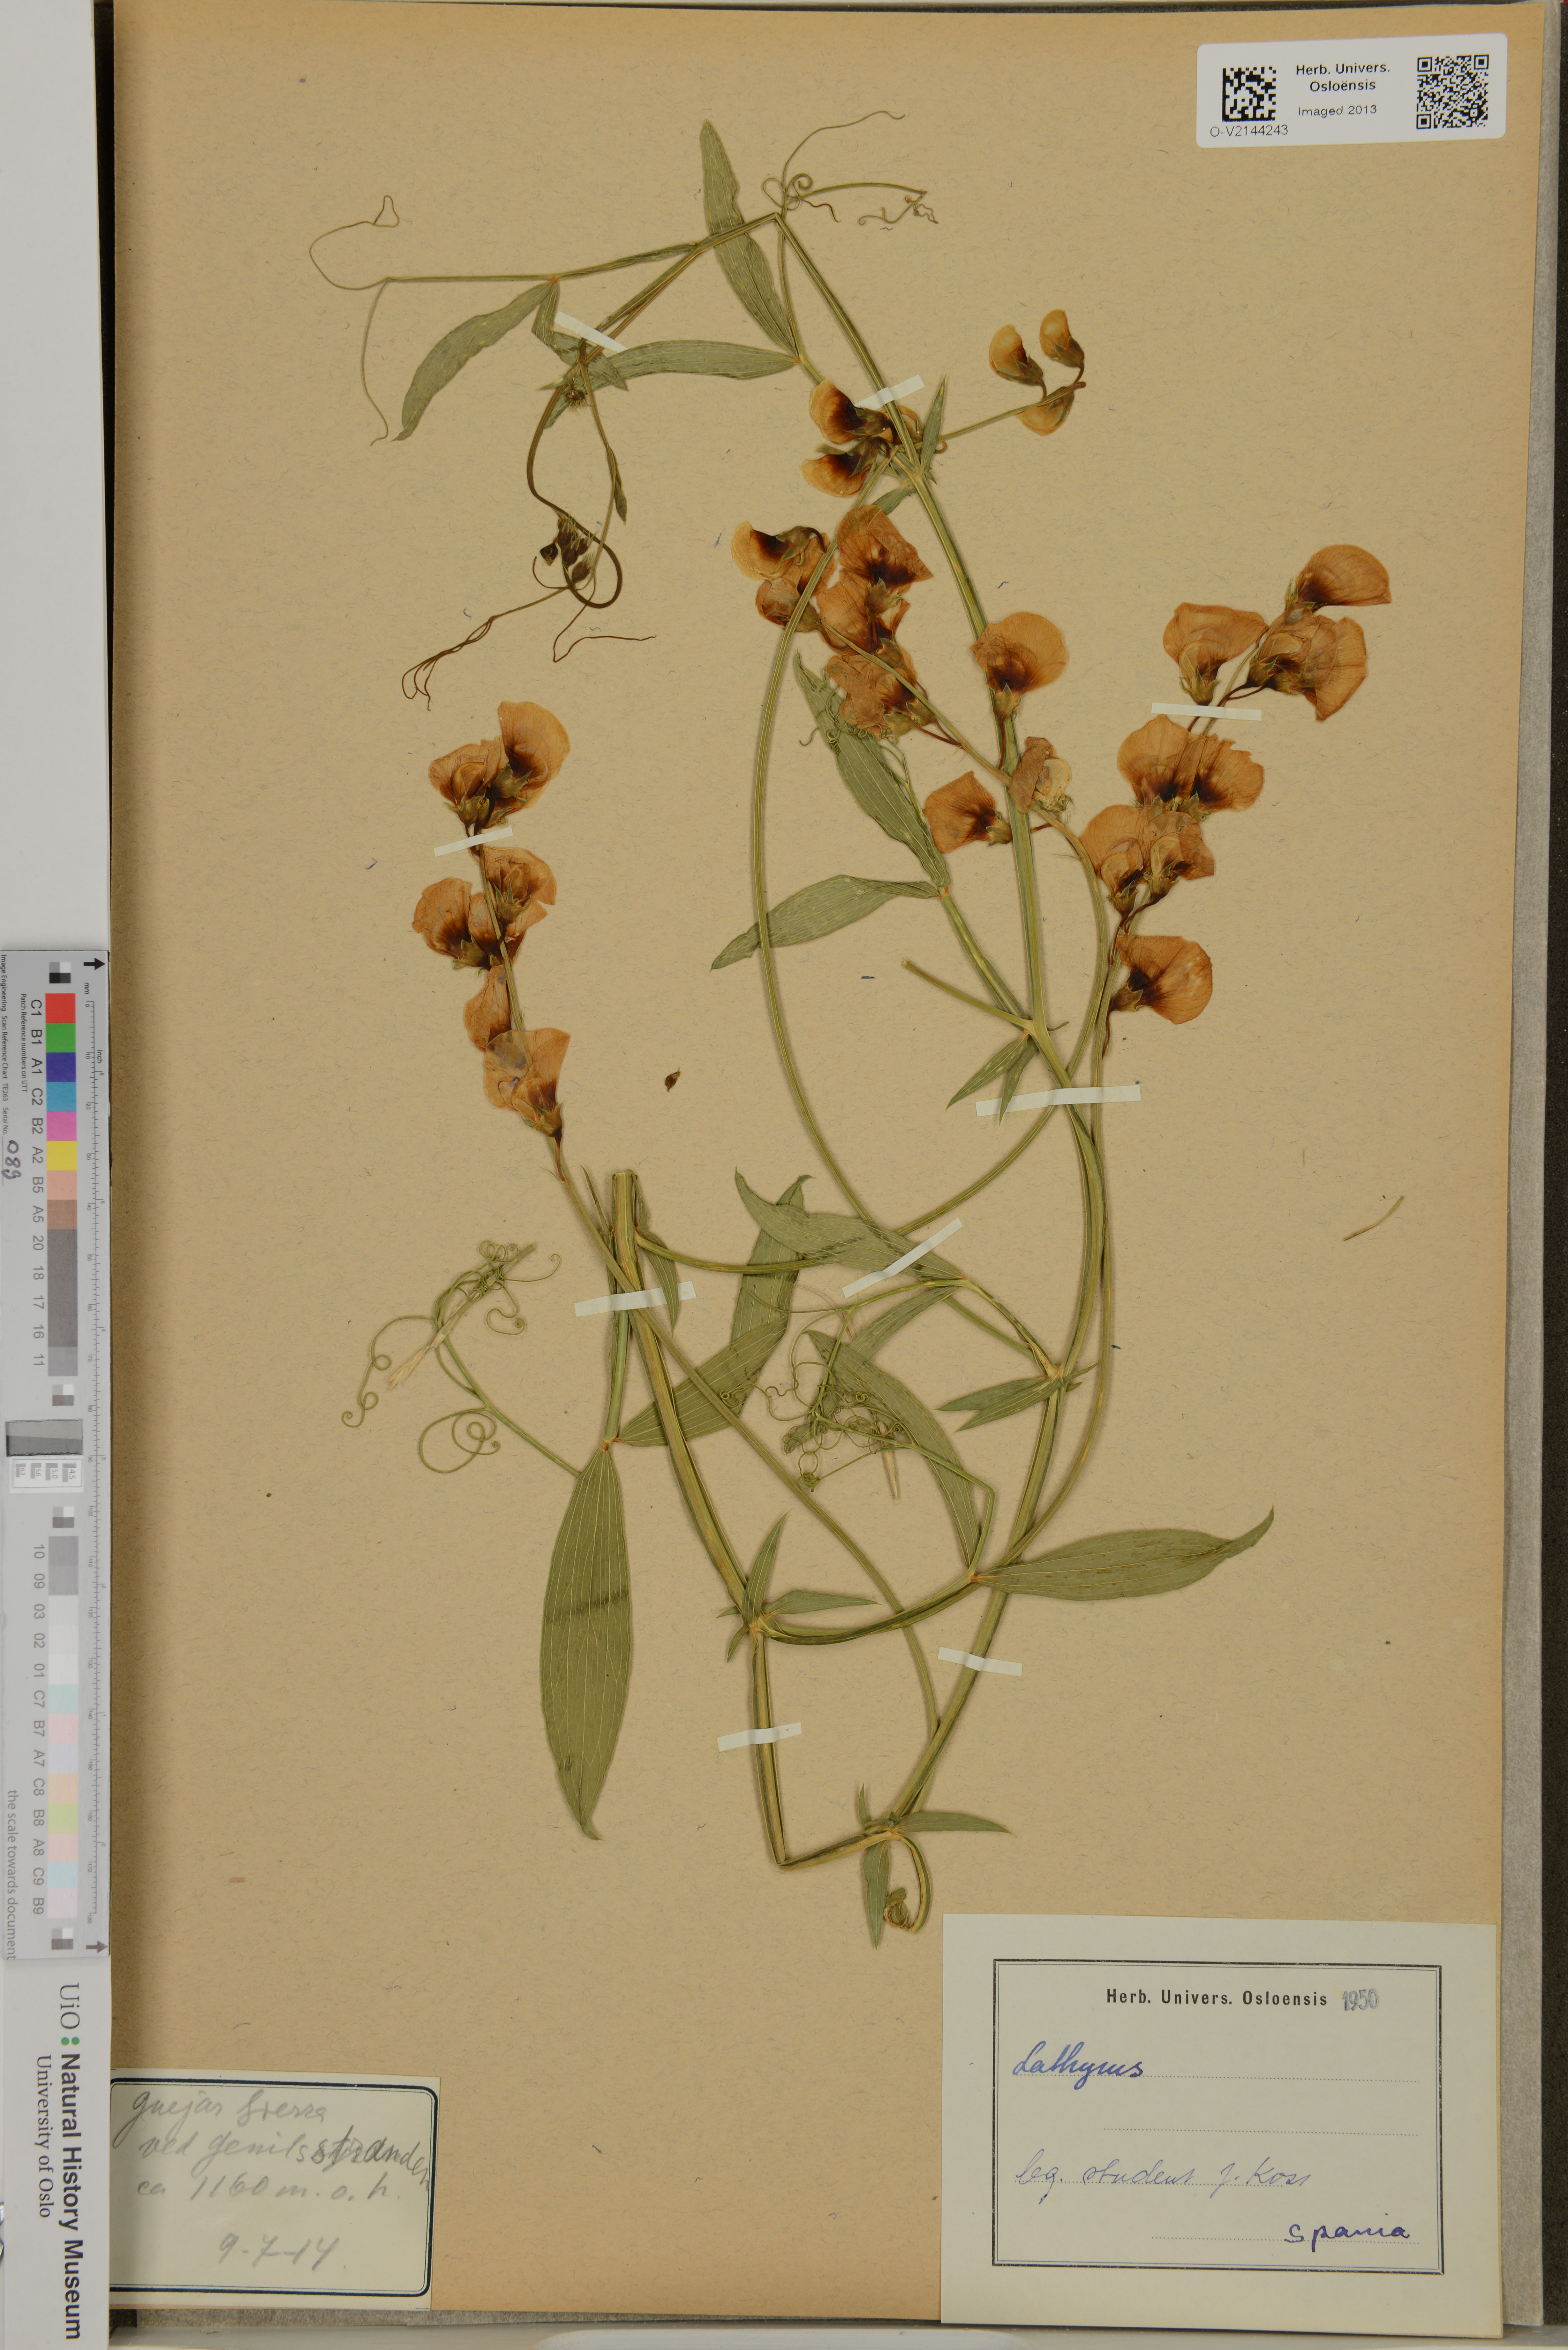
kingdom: Plantae
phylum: Tracheophyta
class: Magnoliopsida
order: Fabales
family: Fabaceae
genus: Lathyrus
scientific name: Lathyrus
